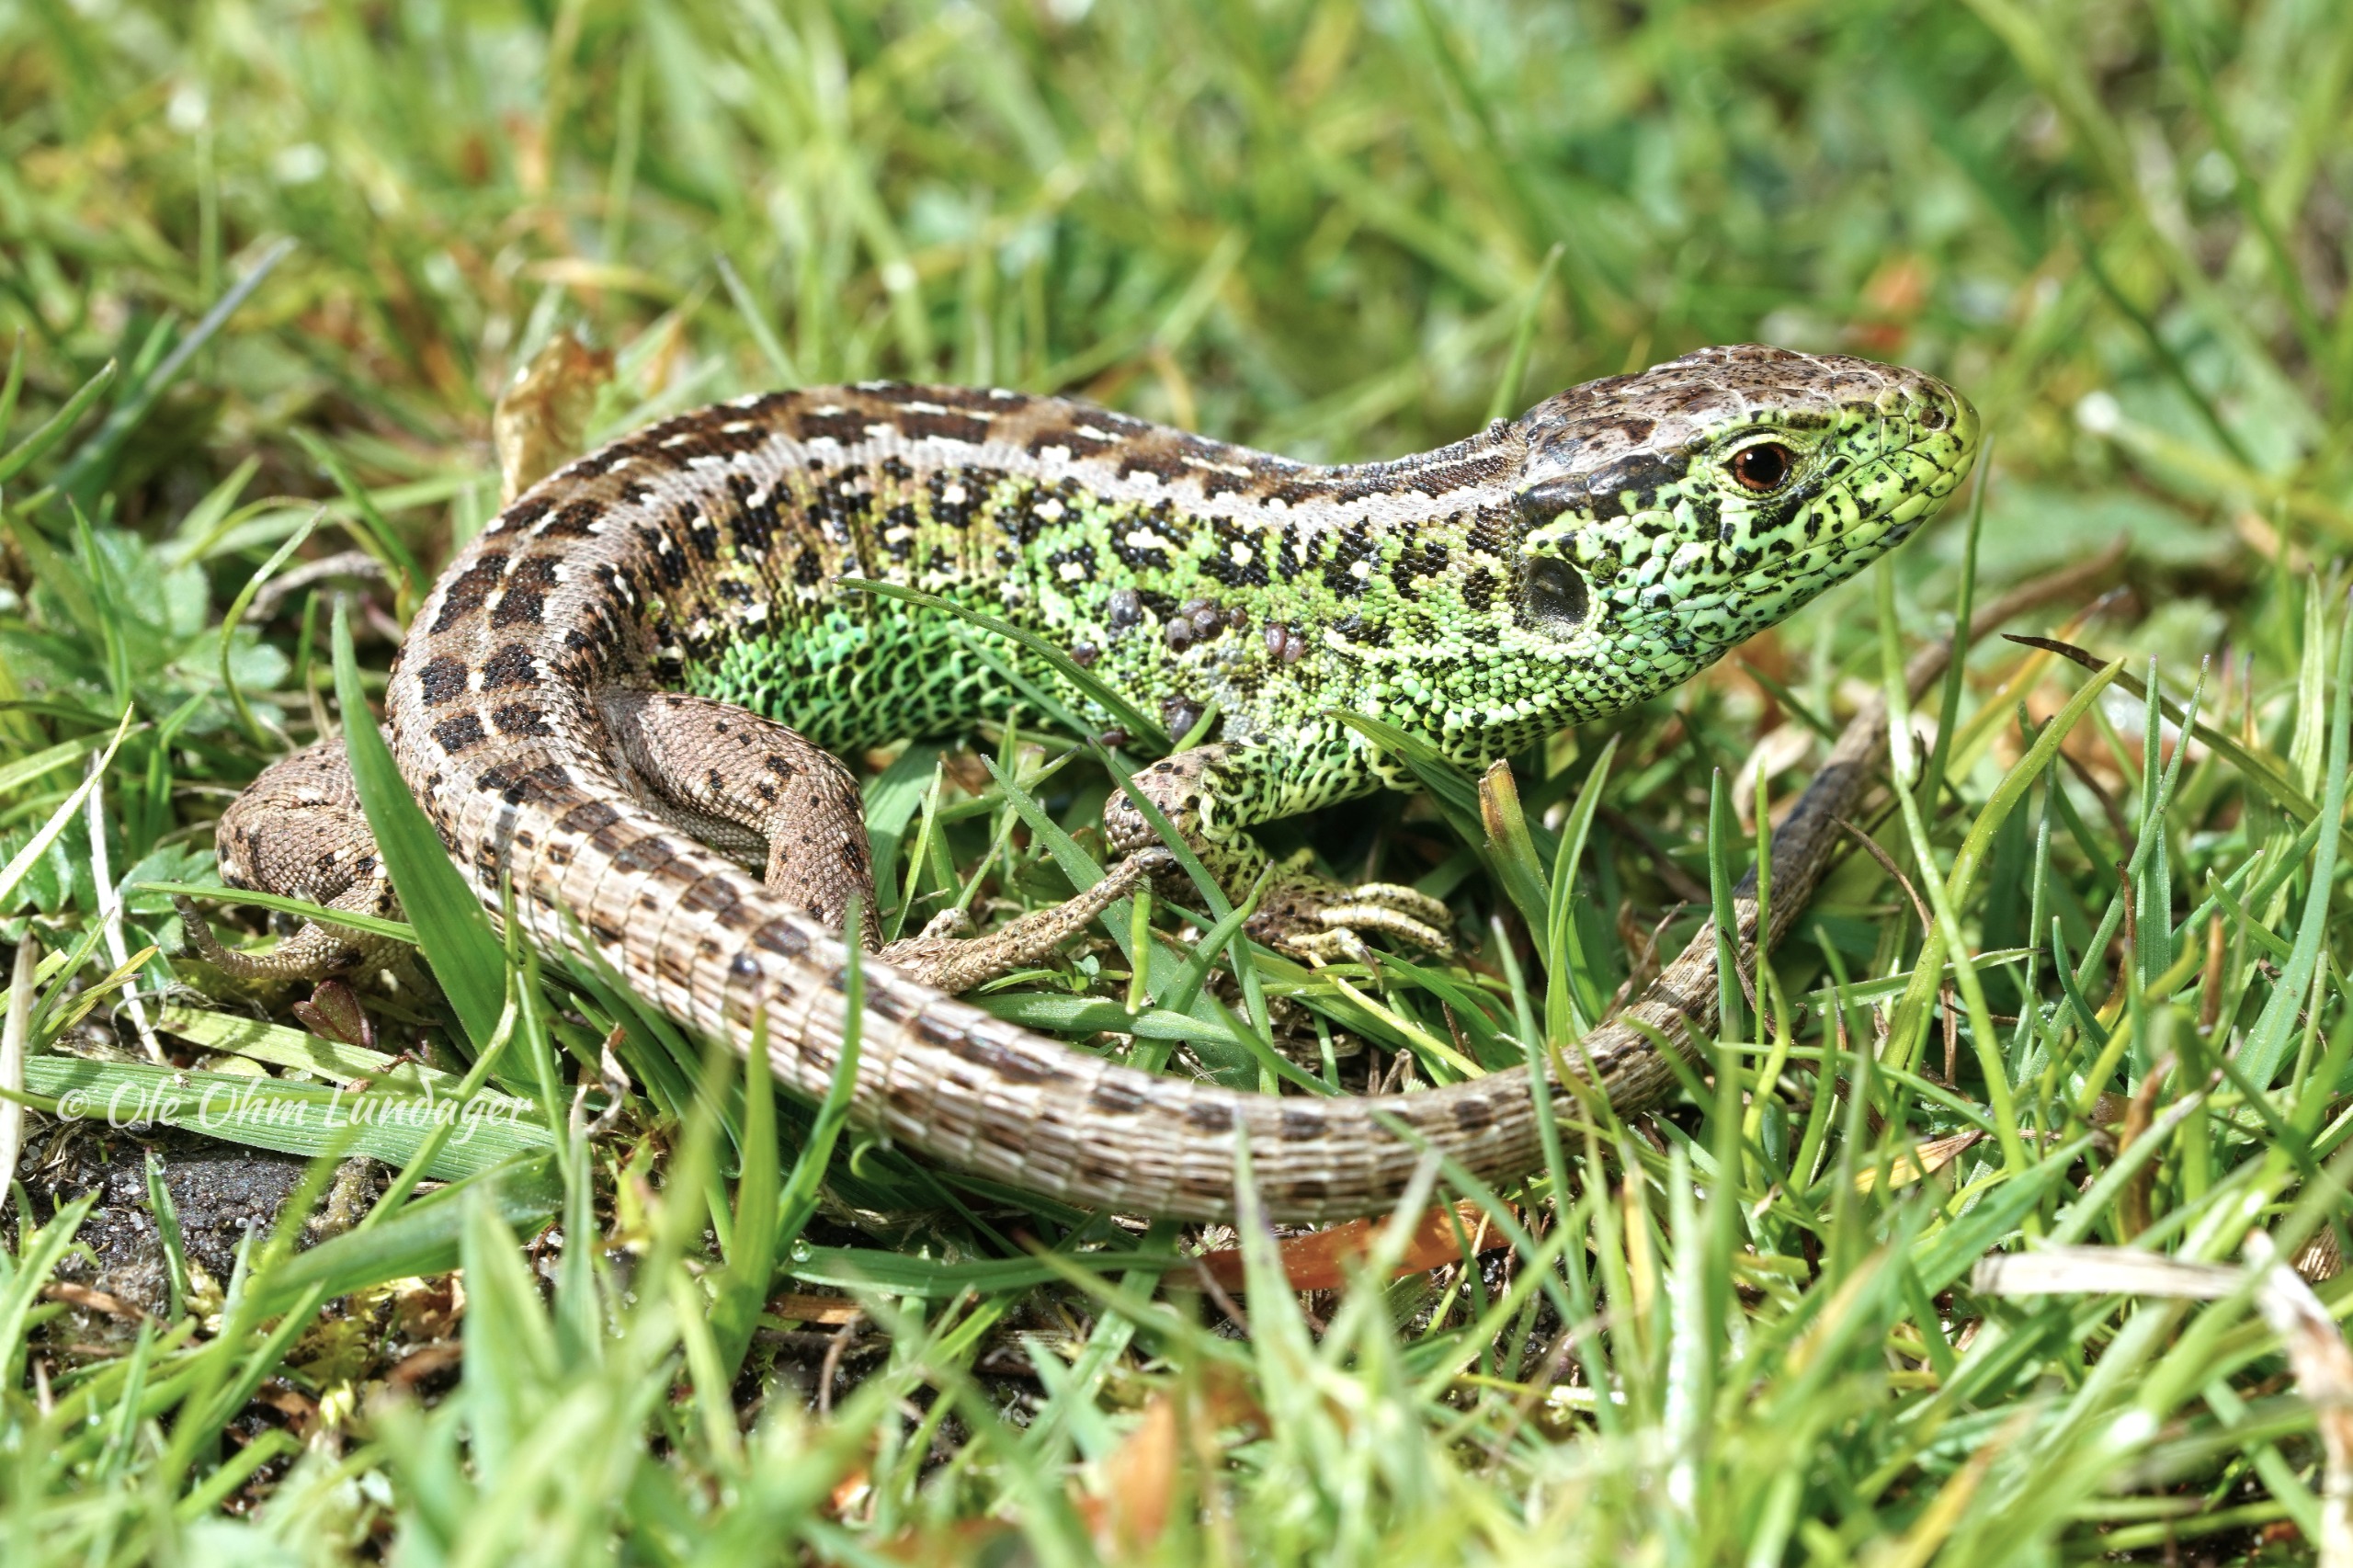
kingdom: Animalia
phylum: Chordata
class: Squamata
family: Lacertidae
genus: Lacerta
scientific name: Lacerta agilis
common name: Markfirben
